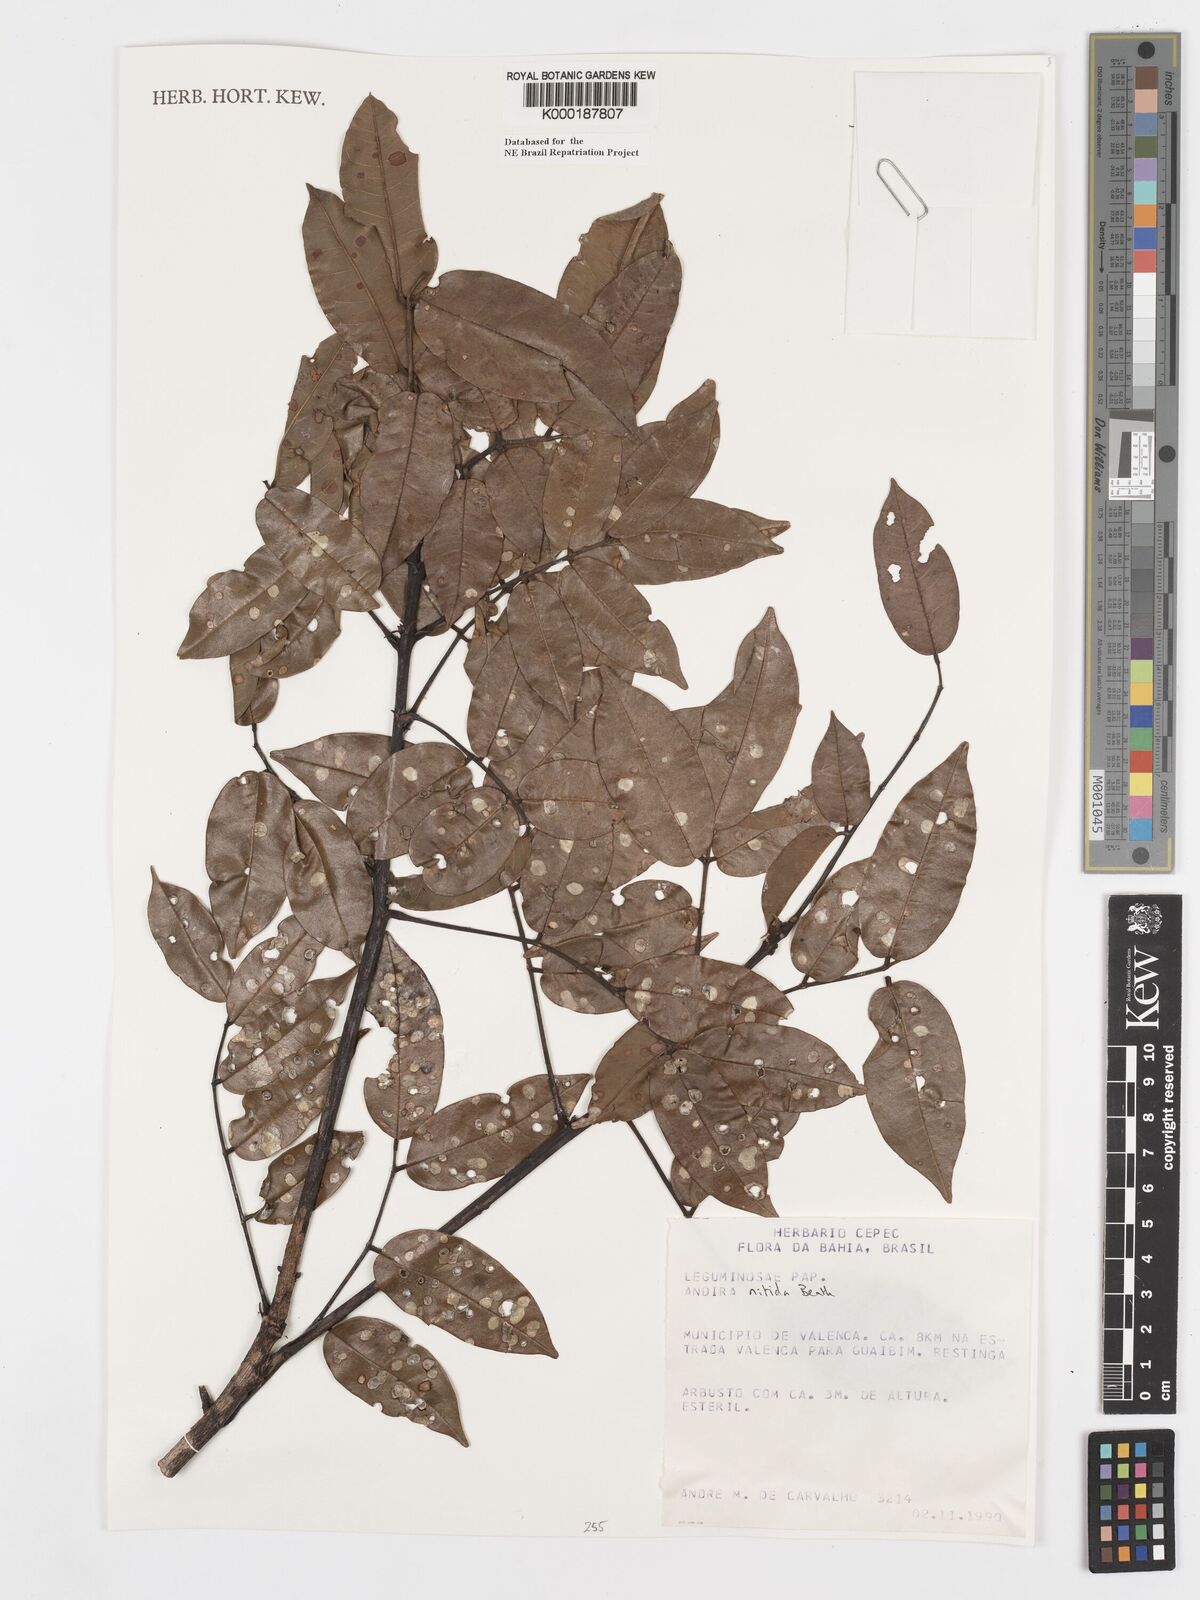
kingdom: Plantae
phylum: Tracheophyta
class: Magnoliopsida
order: Fabales
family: Fabaceae
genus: Andira
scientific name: Andira nitida
